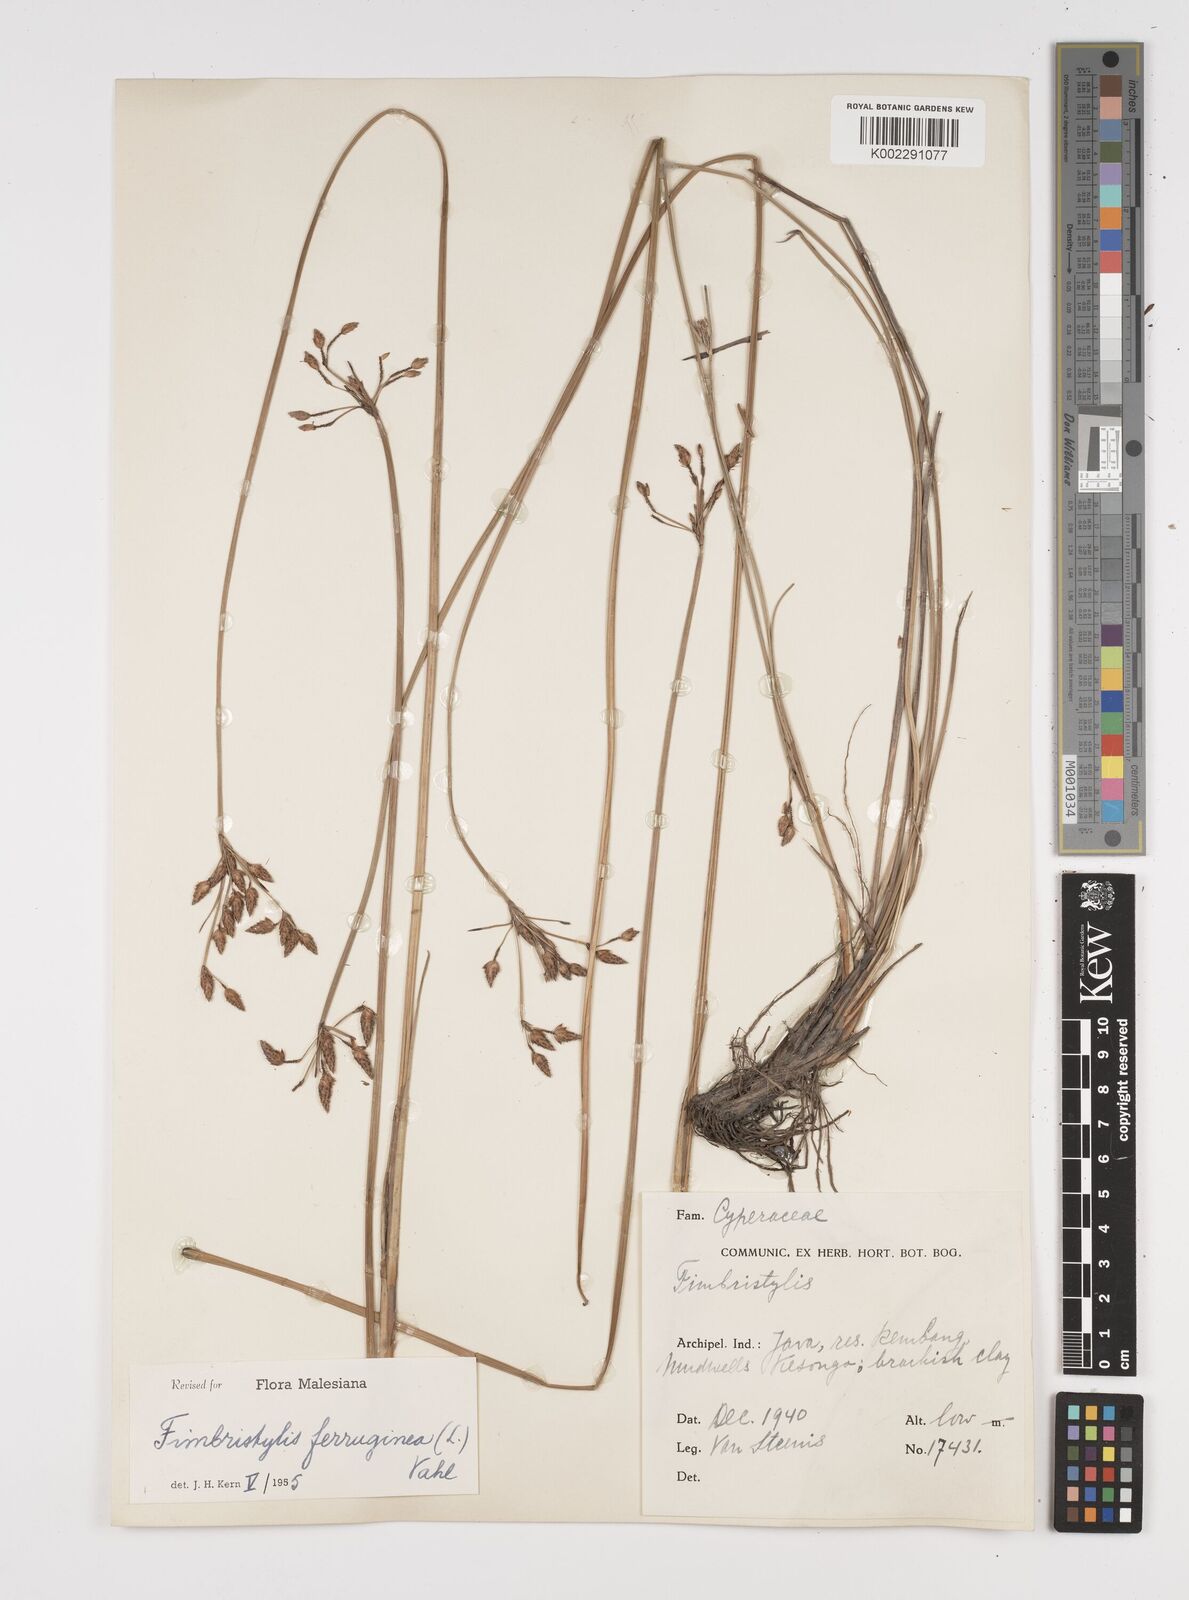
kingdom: Plantae
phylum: Tracheophyta
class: Liliopsida
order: Poales
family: Cyperaceae
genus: Fimbristylis
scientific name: Fimbristylis ferruginea
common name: West indian fimbry
